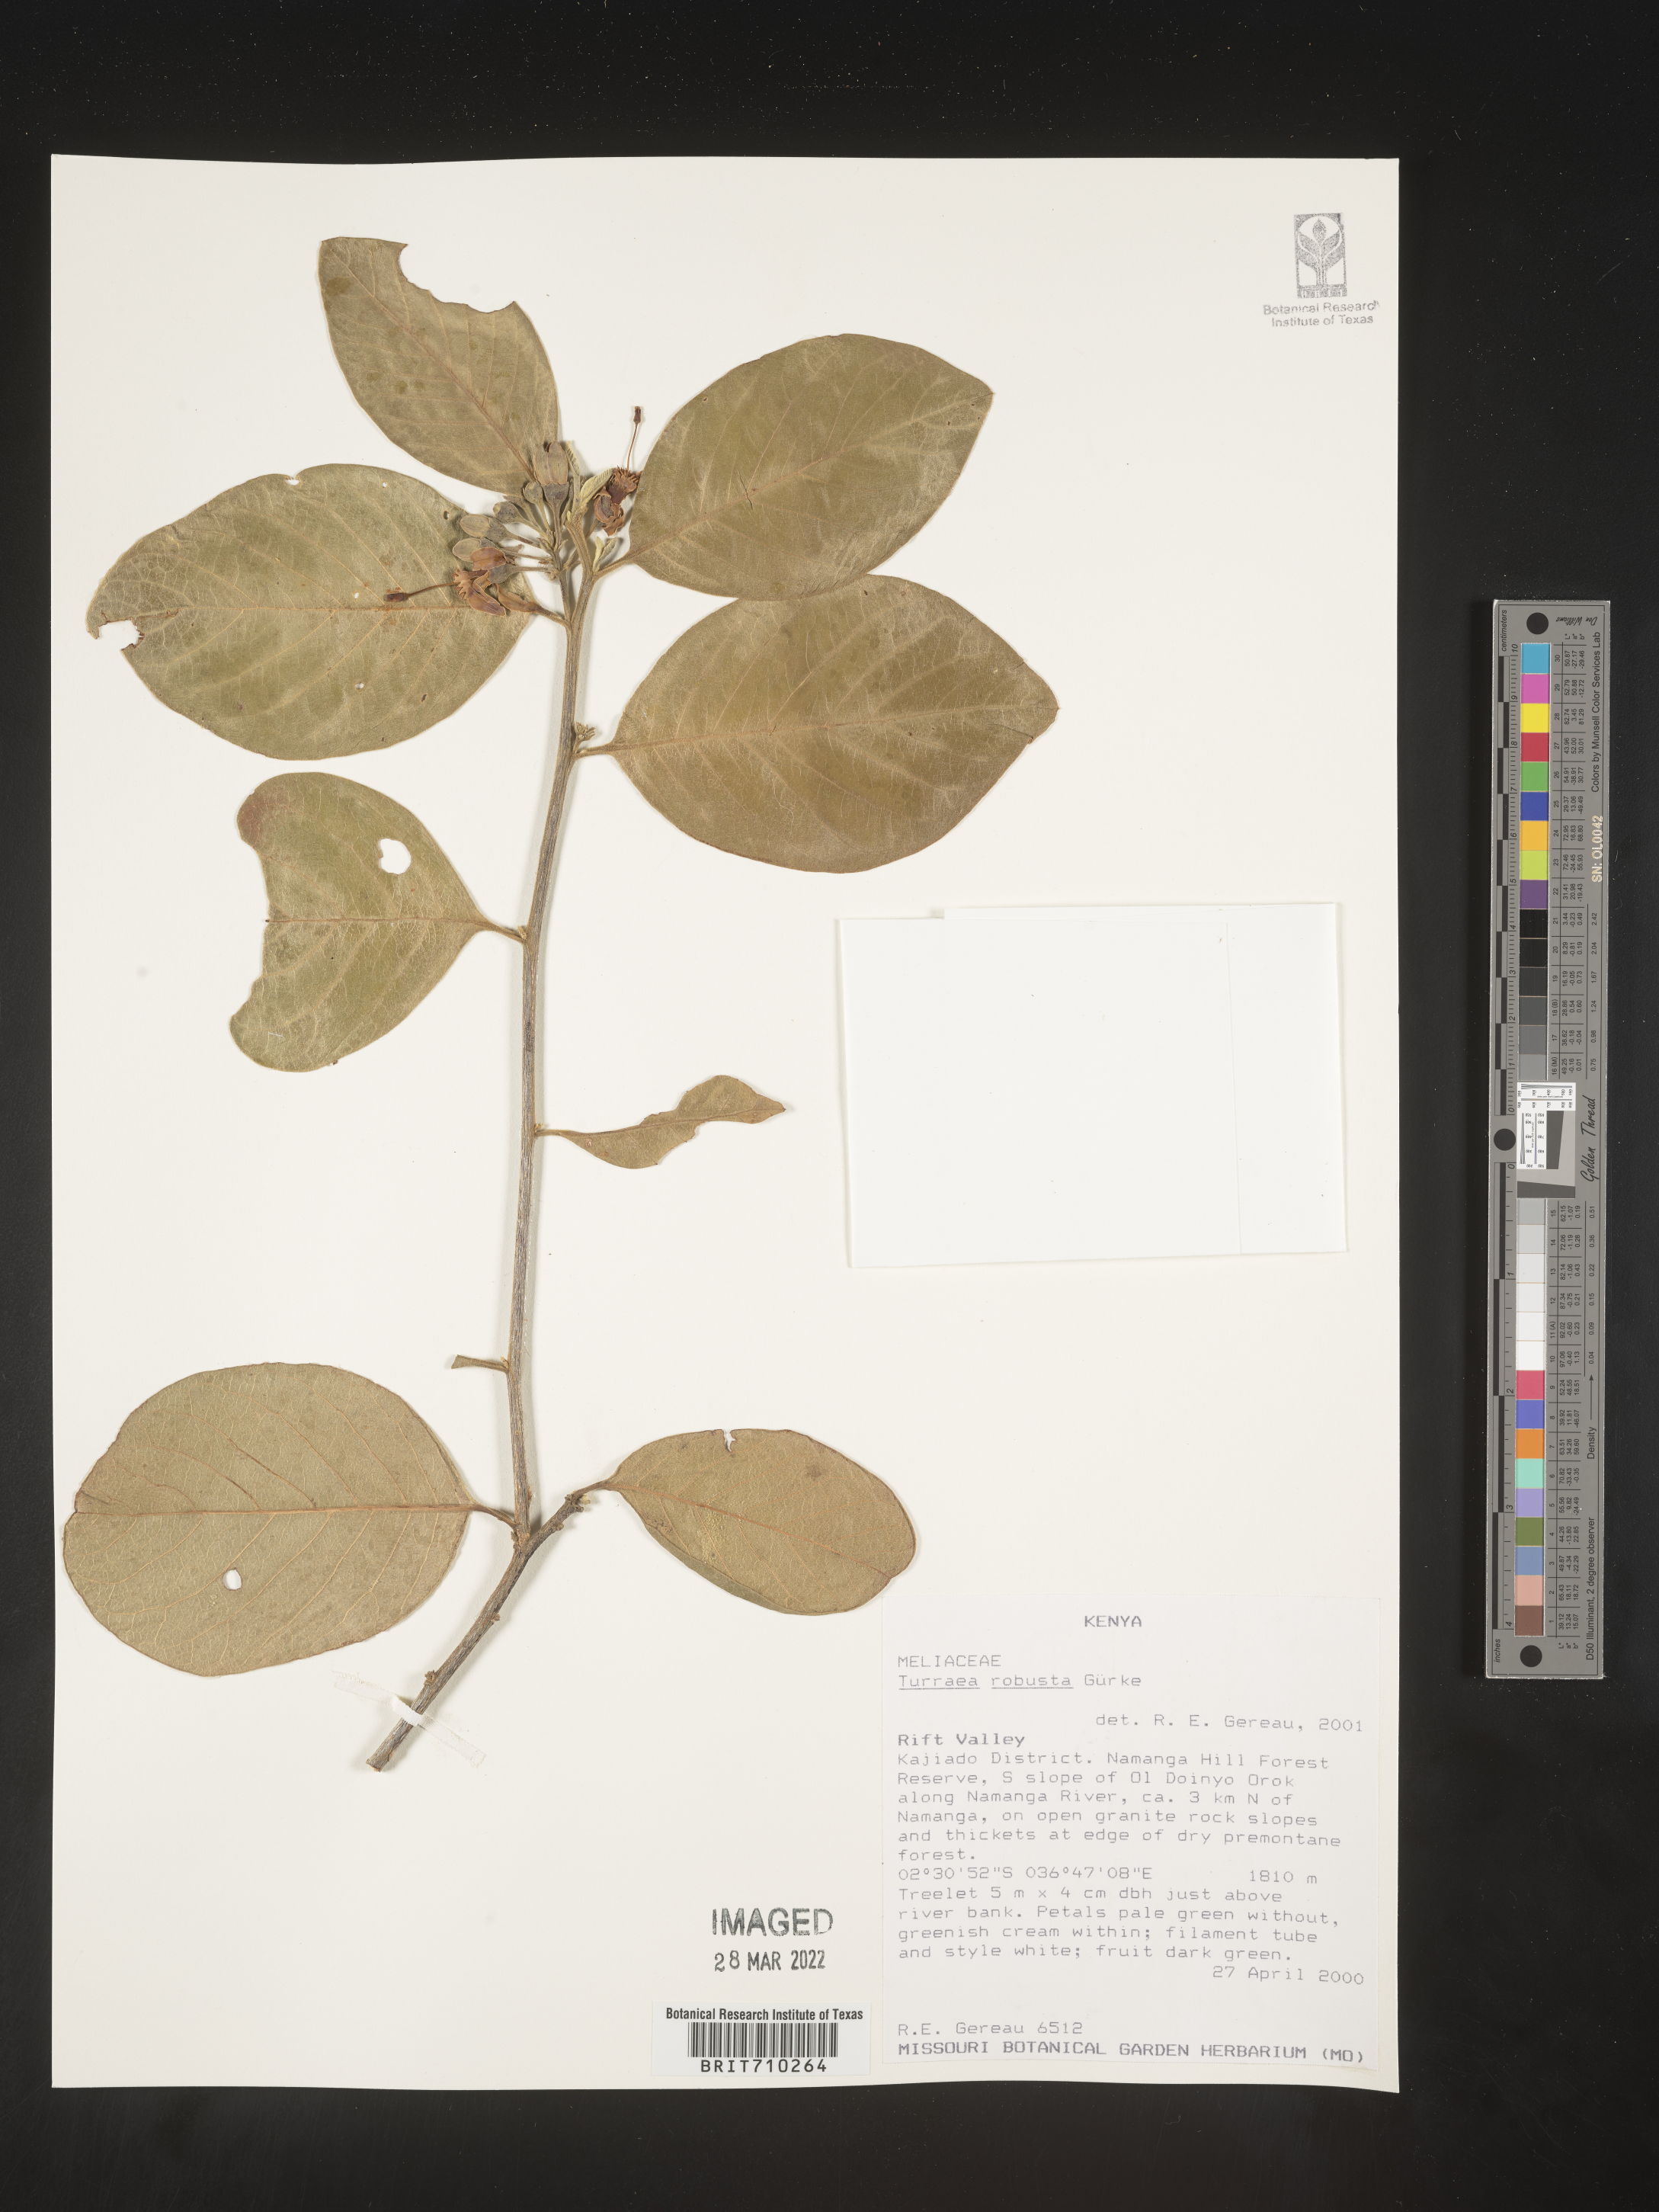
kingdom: Plantae
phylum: Tracheophyta
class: Magnoliopsida
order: Sapindales
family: Meliaceae
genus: Turraea
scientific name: Turraea
